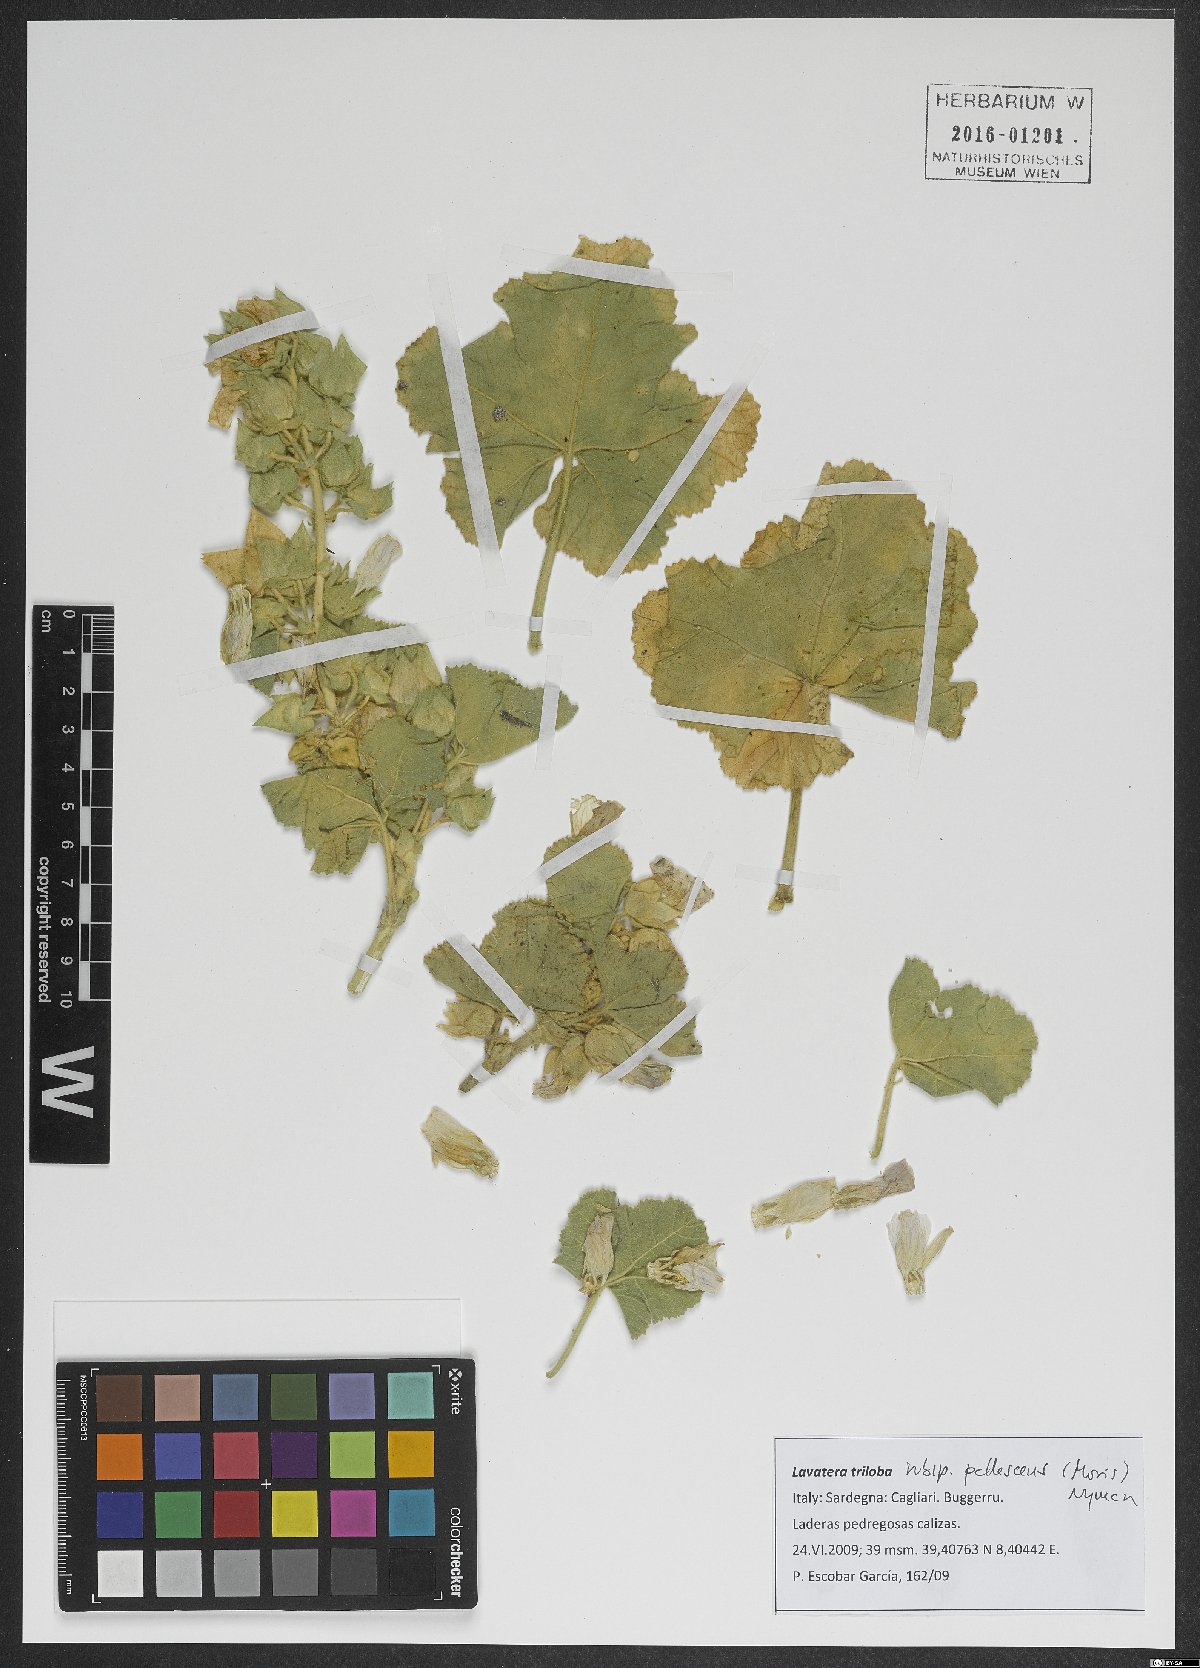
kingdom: Plantae
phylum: Tracheophyta
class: Magnoliopsida
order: Malvales
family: Malvaceae
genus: Malva
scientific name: Malva lusitanica
